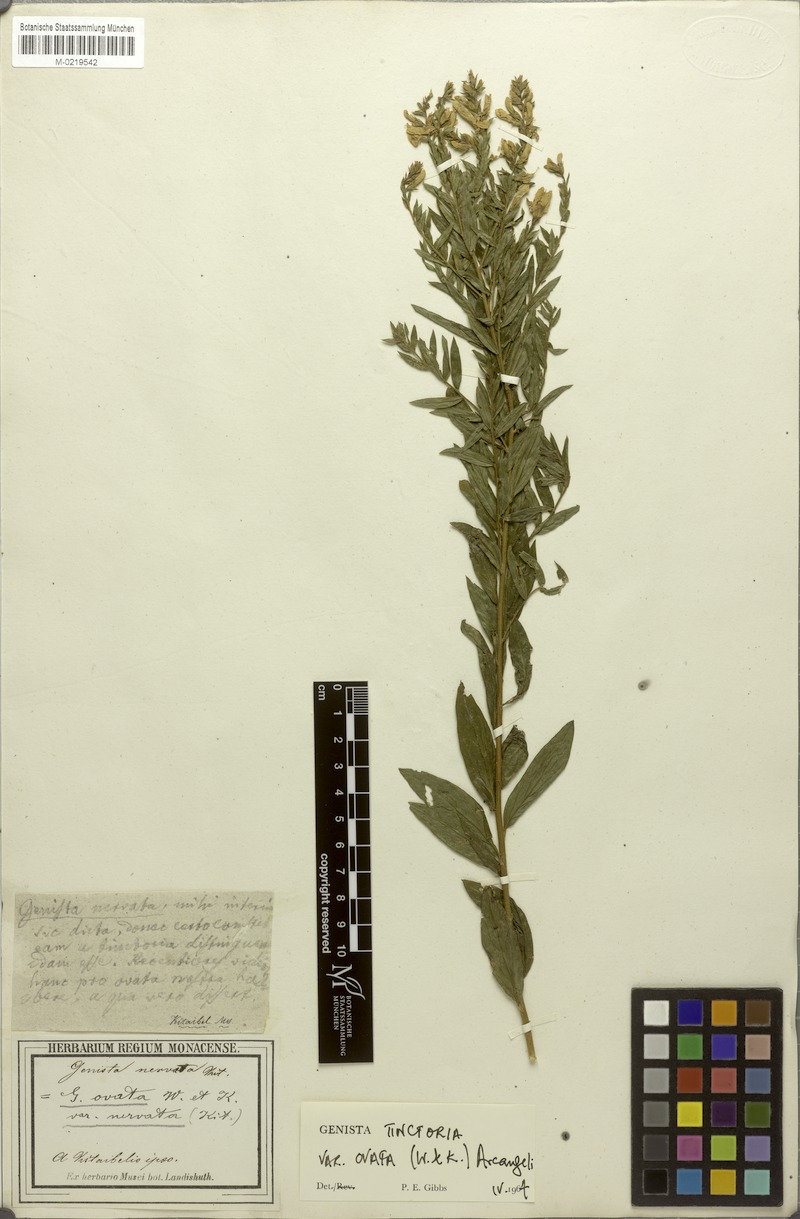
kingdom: Plantae
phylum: Tracheophyta
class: Magnoliopsida
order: Fabales
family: Fabaceae
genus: Genista
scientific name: Genista tinctoria
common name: Dyer's greenweed
